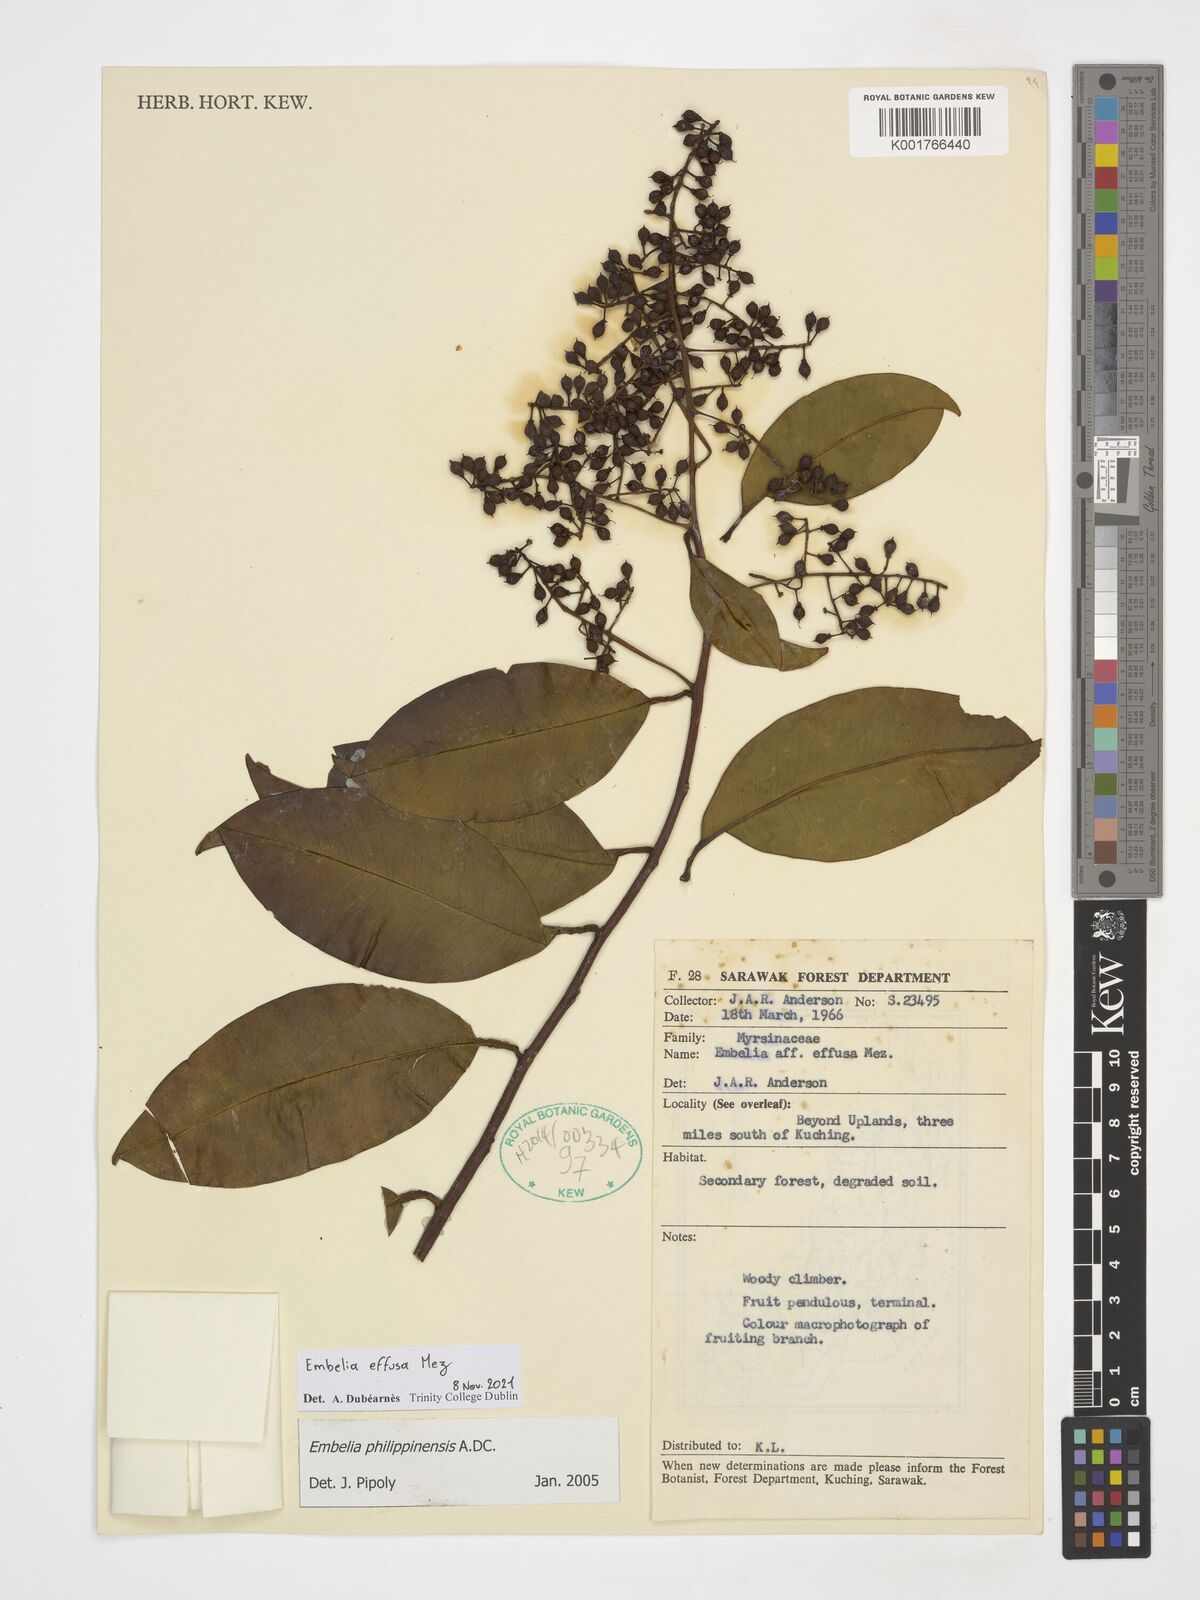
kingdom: Plantae
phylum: Tracheophyta
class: Magnoliopsida
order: Ericales
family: Primulaceae
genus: Embelia
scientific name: Embelia effusa
